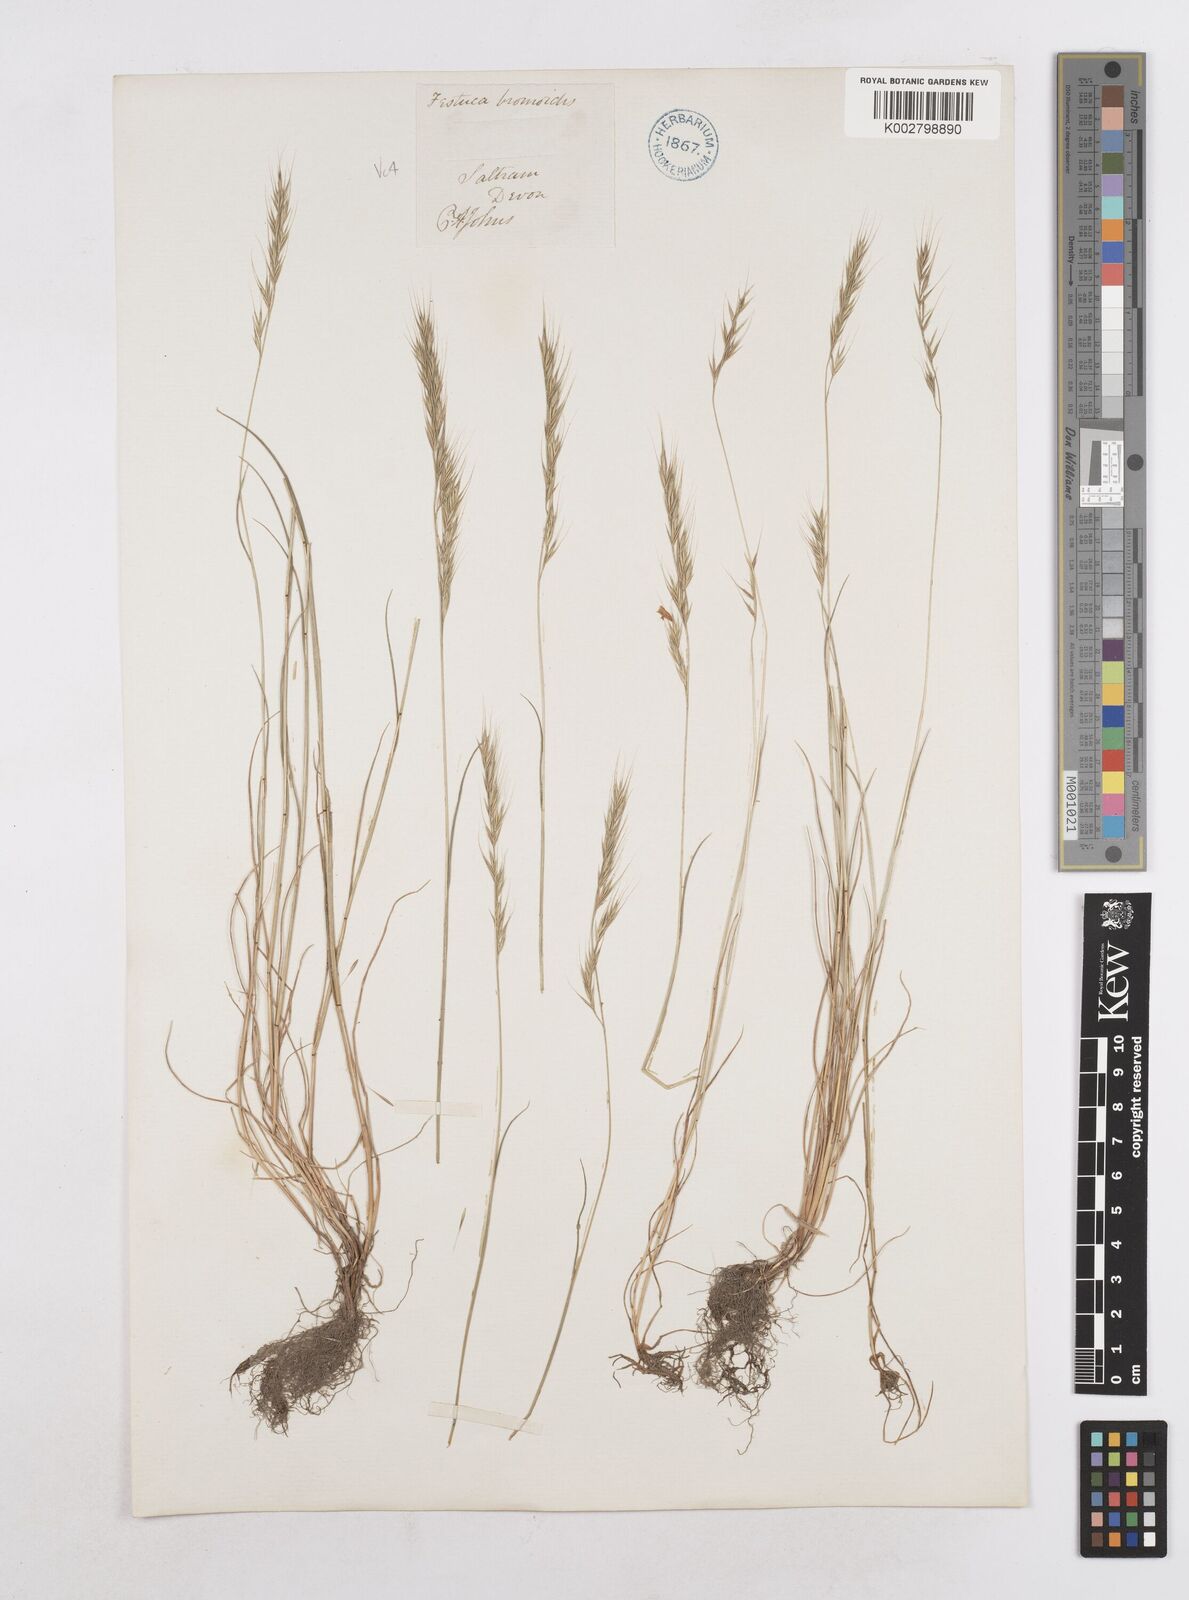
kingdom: Plantae
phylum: Tracheophyta
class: Liliopsida
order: Poales
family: Poaceae
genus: Festuca
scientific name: Festuca bromoides
